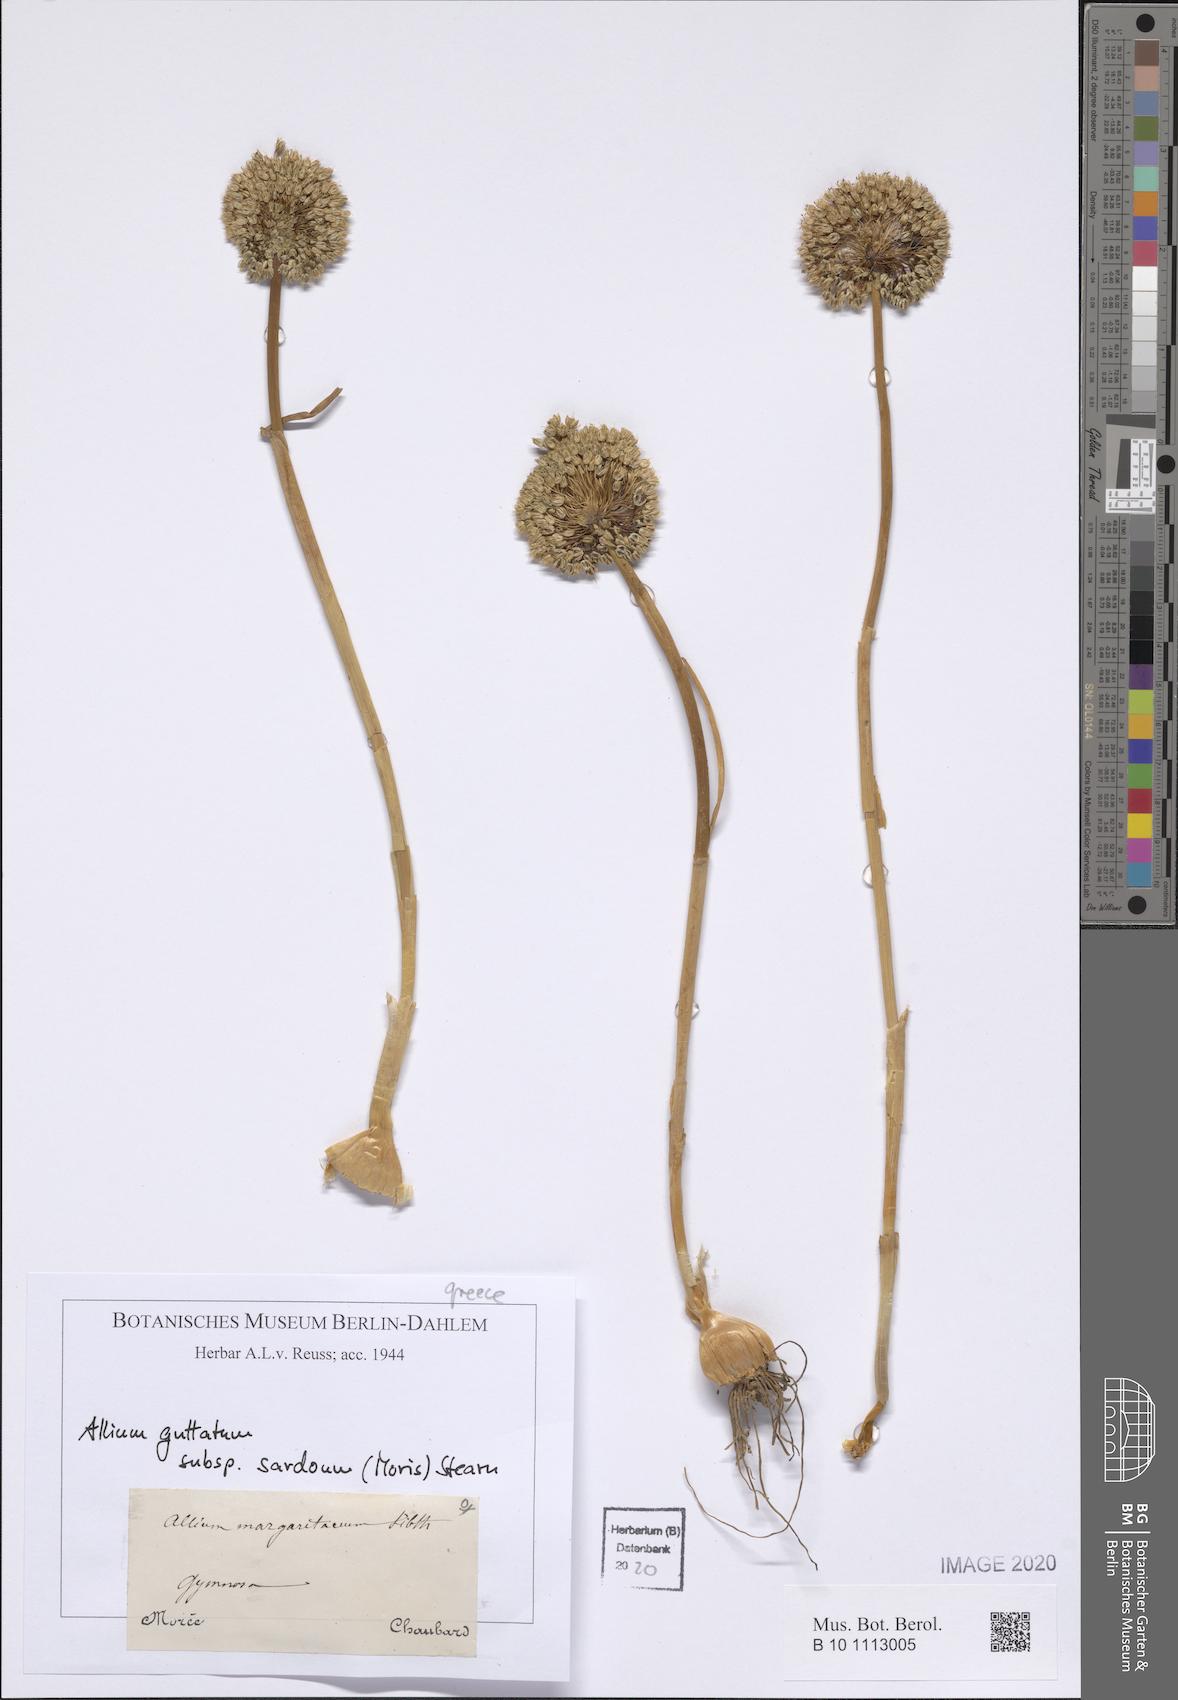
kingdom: Plantae
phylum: Tracheophyta
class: Liliopsida
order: Asparagales
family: Amaryllidaceae
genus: Allium
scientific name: Allium sardoum
